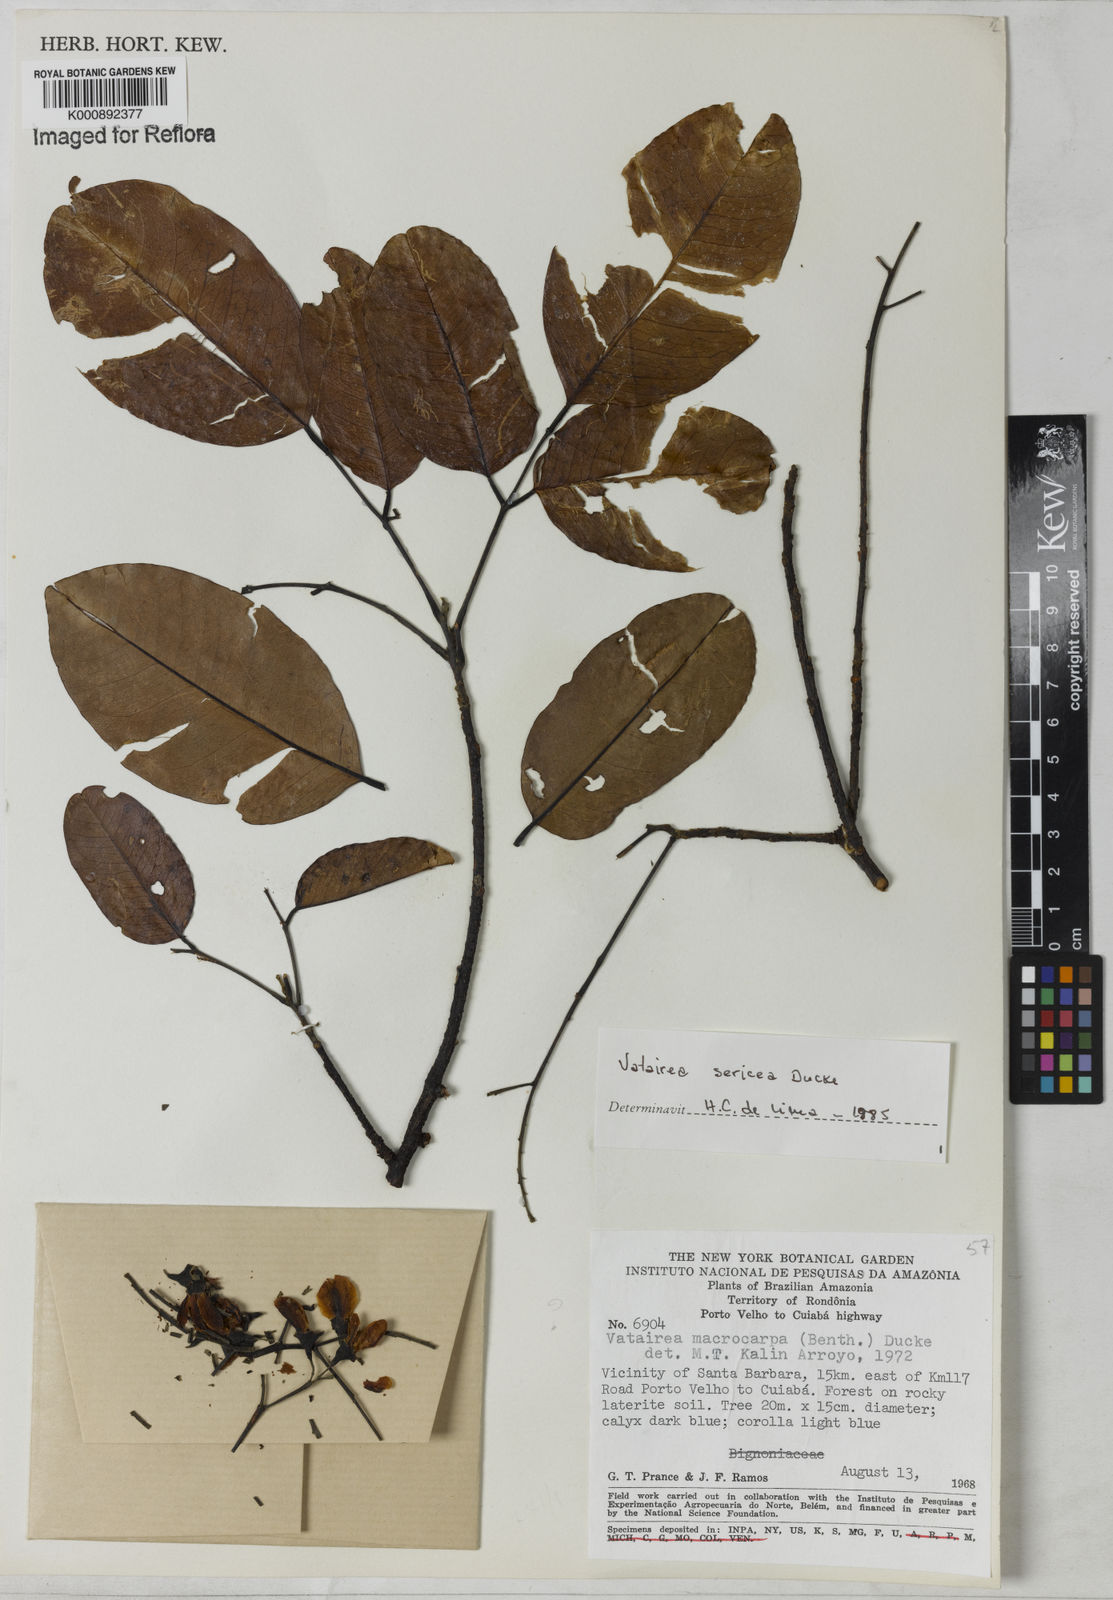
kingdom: Plantae
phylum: Tracheophyta
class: Magnoliopsida
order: Fabales
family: Fabaceae
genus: Vatairea
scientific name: Vatairea sericea
